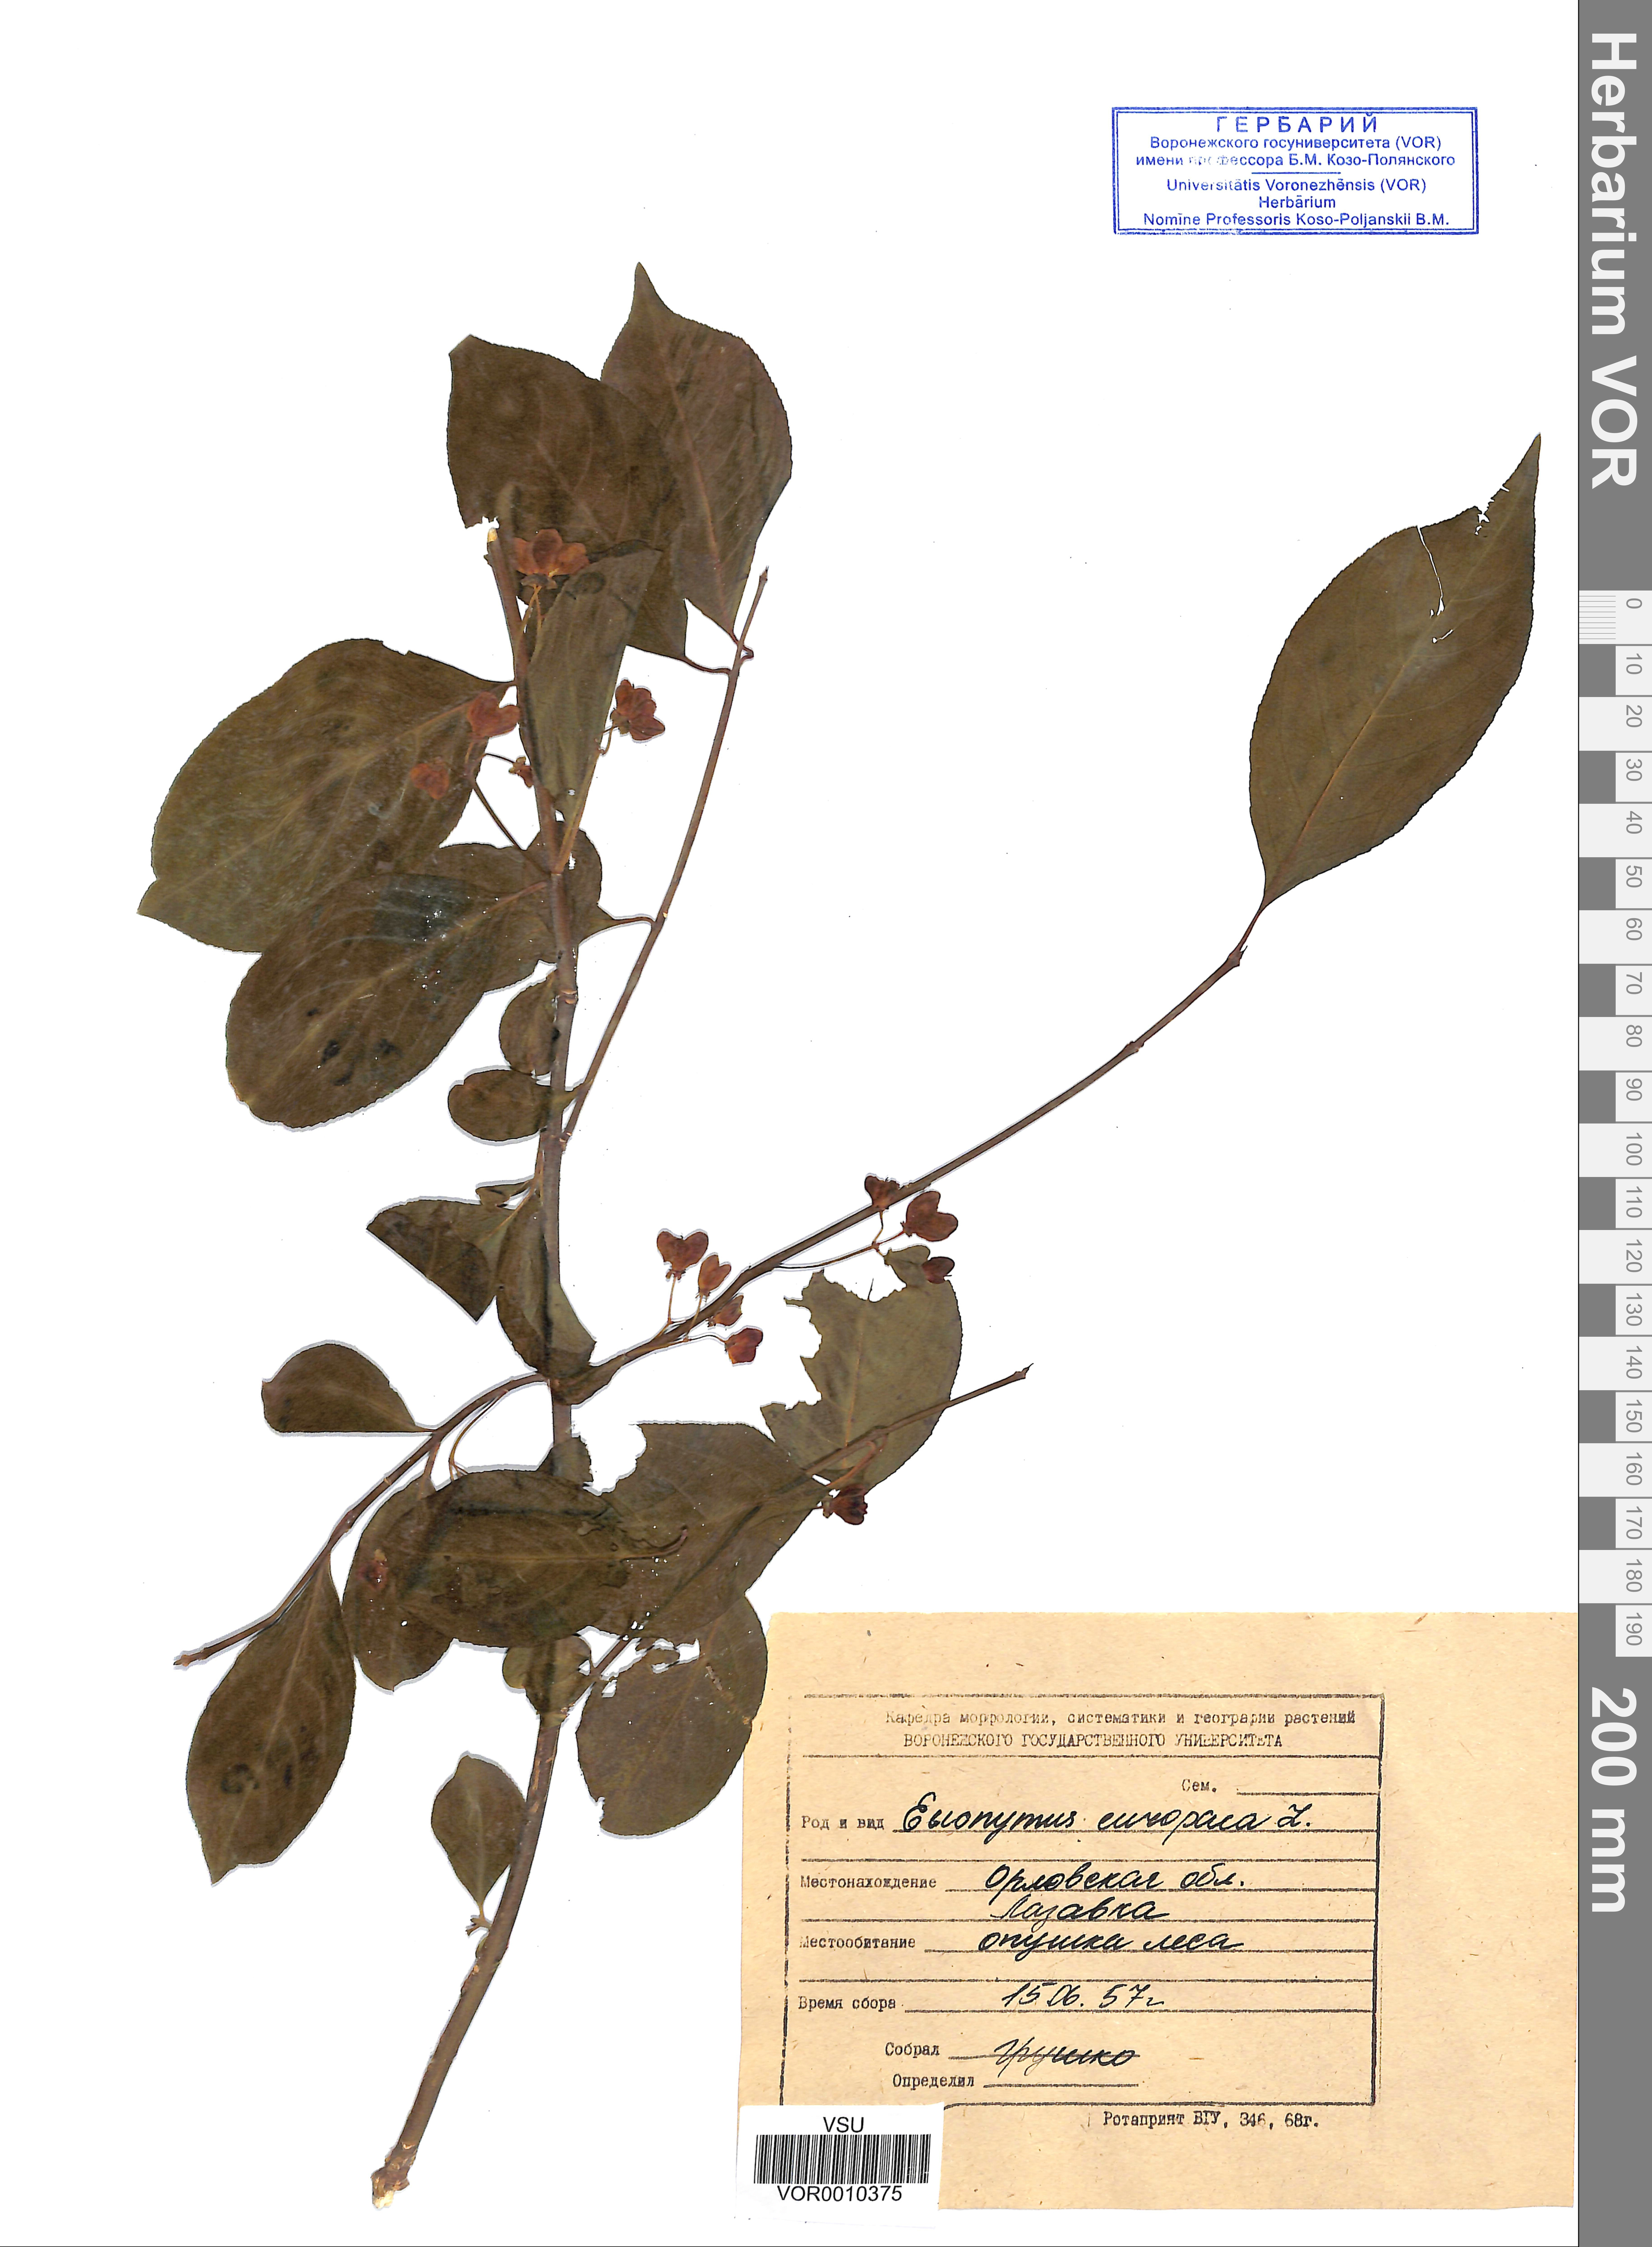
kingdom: Plantae
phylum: Tracheophyta
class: Magnoliopsida
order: Celastrales
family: Celastraceae
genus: Euonymus
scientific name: Euonymus europaeus
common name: Spindle
